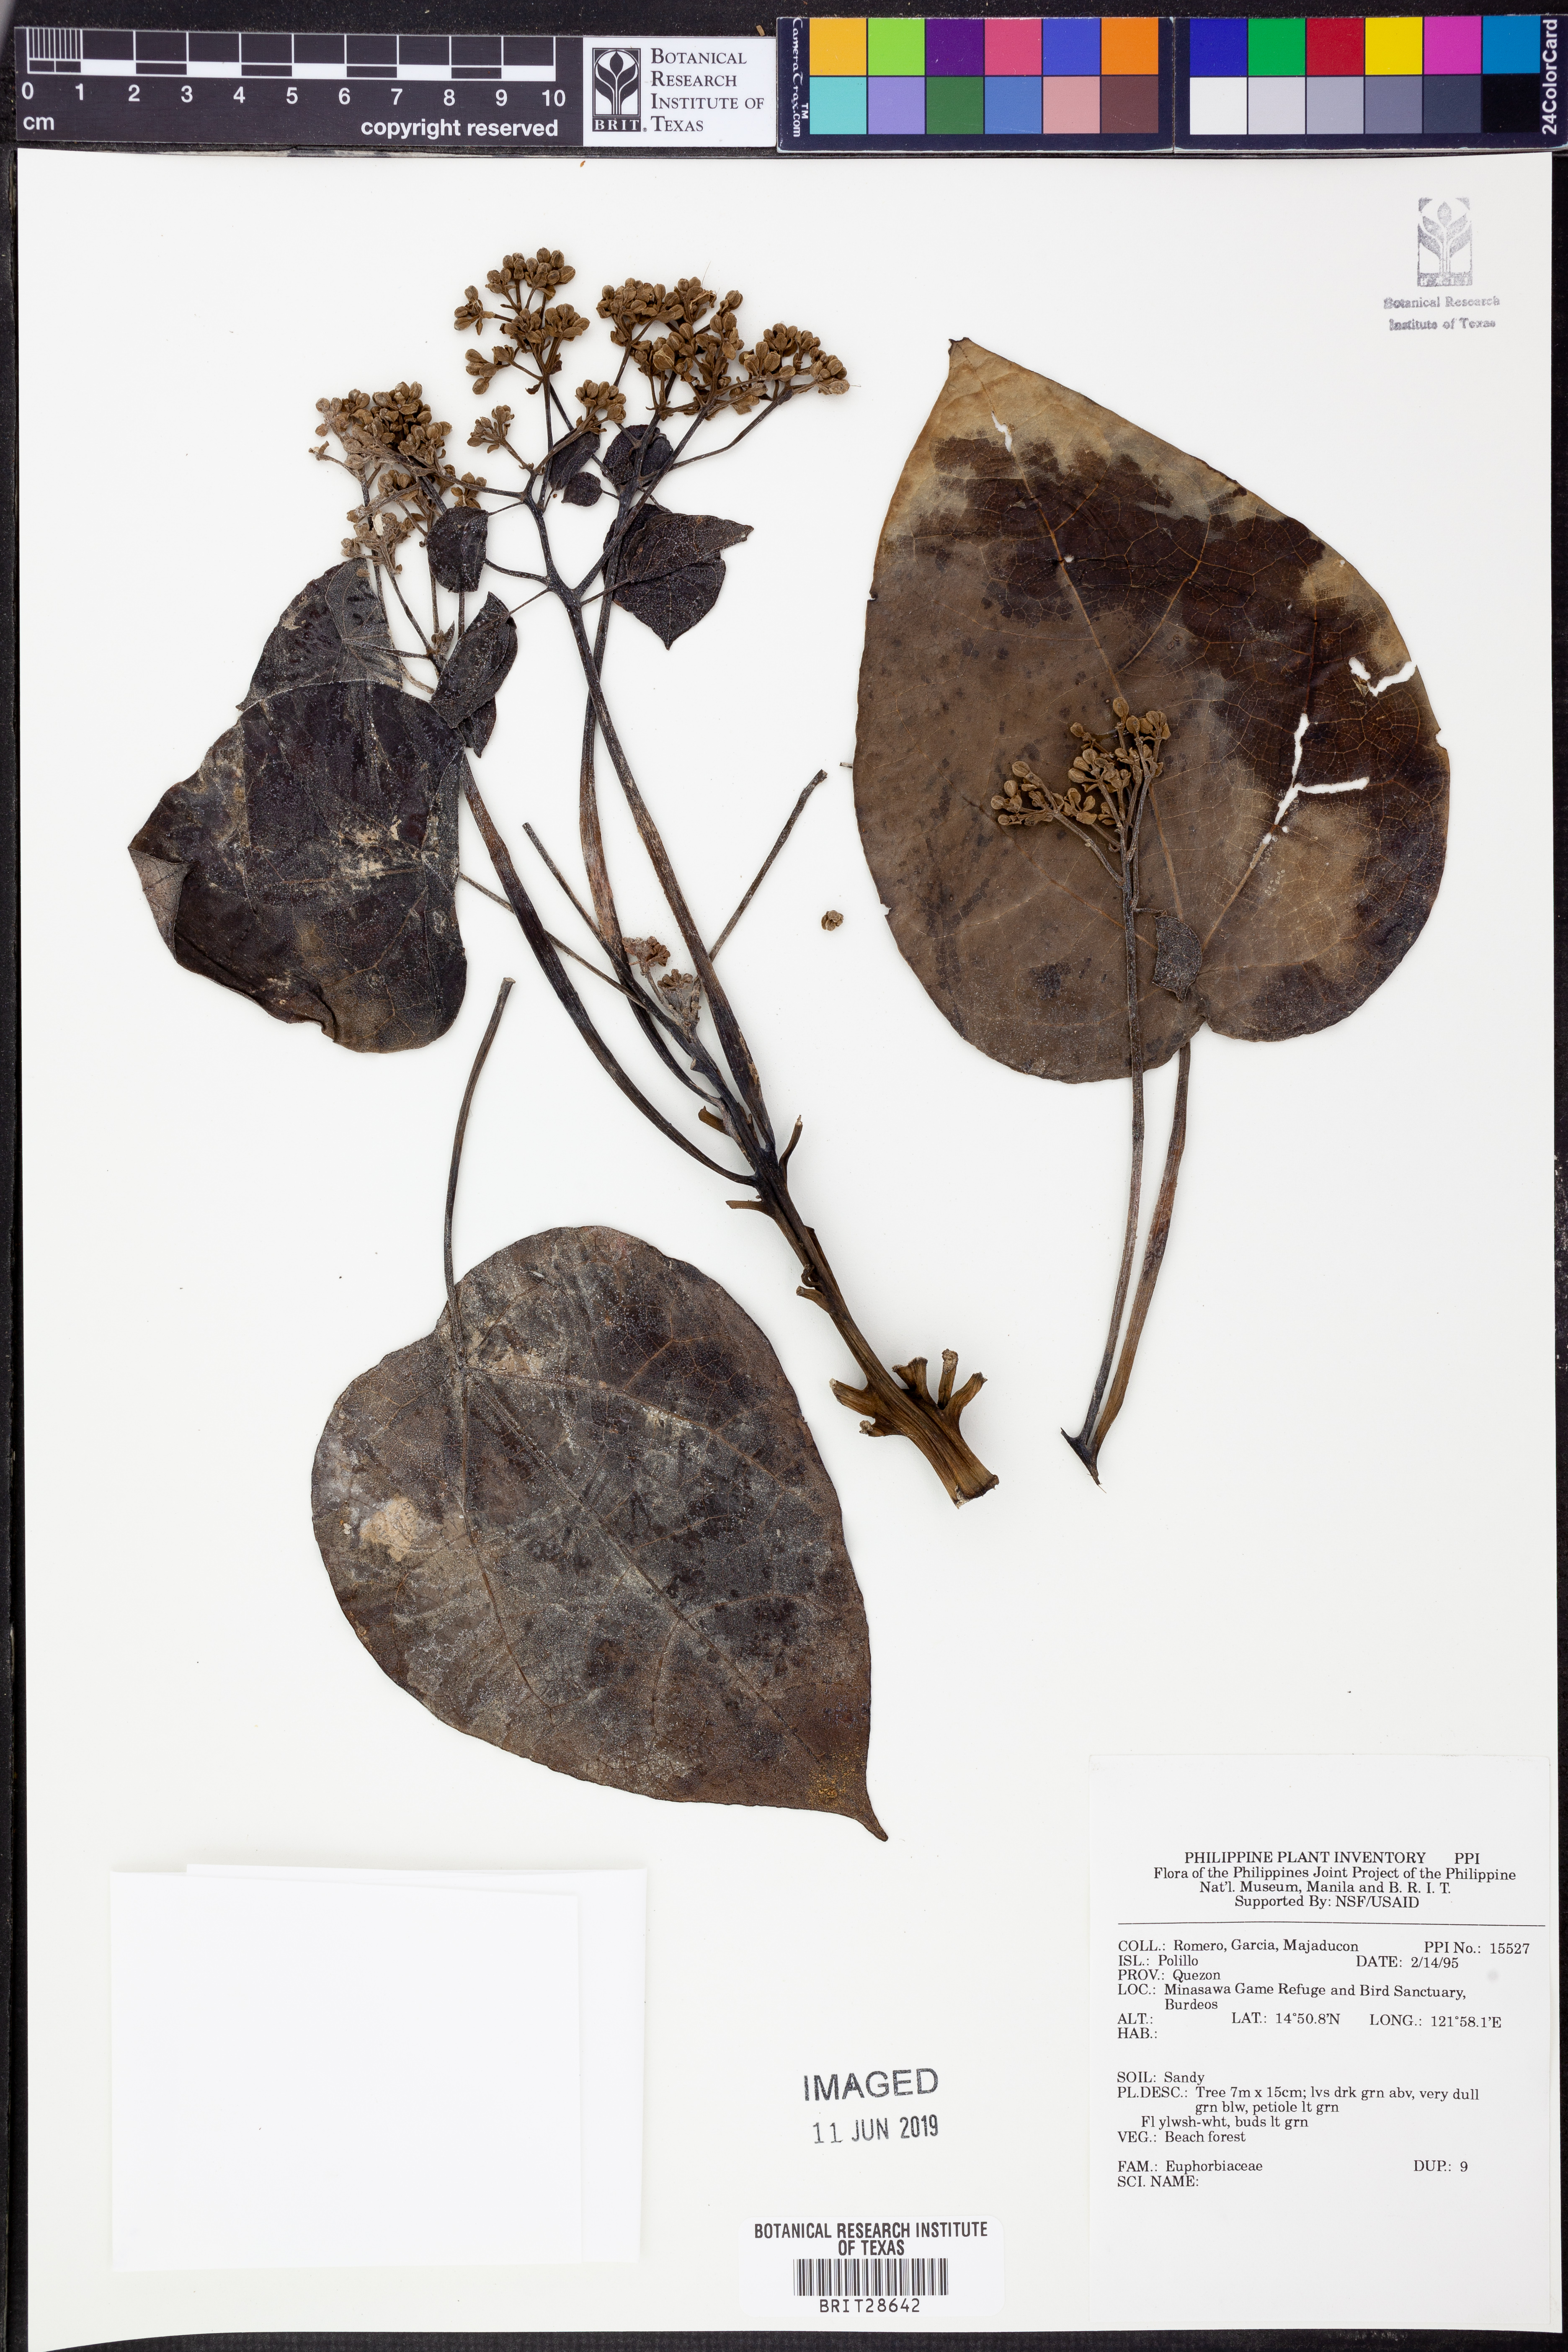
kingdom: Plantae
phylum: Tracheophyta
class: Magnoliopsida
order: Malpighiales
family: Euphorbiaceae
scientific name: Euphorbiaceae
